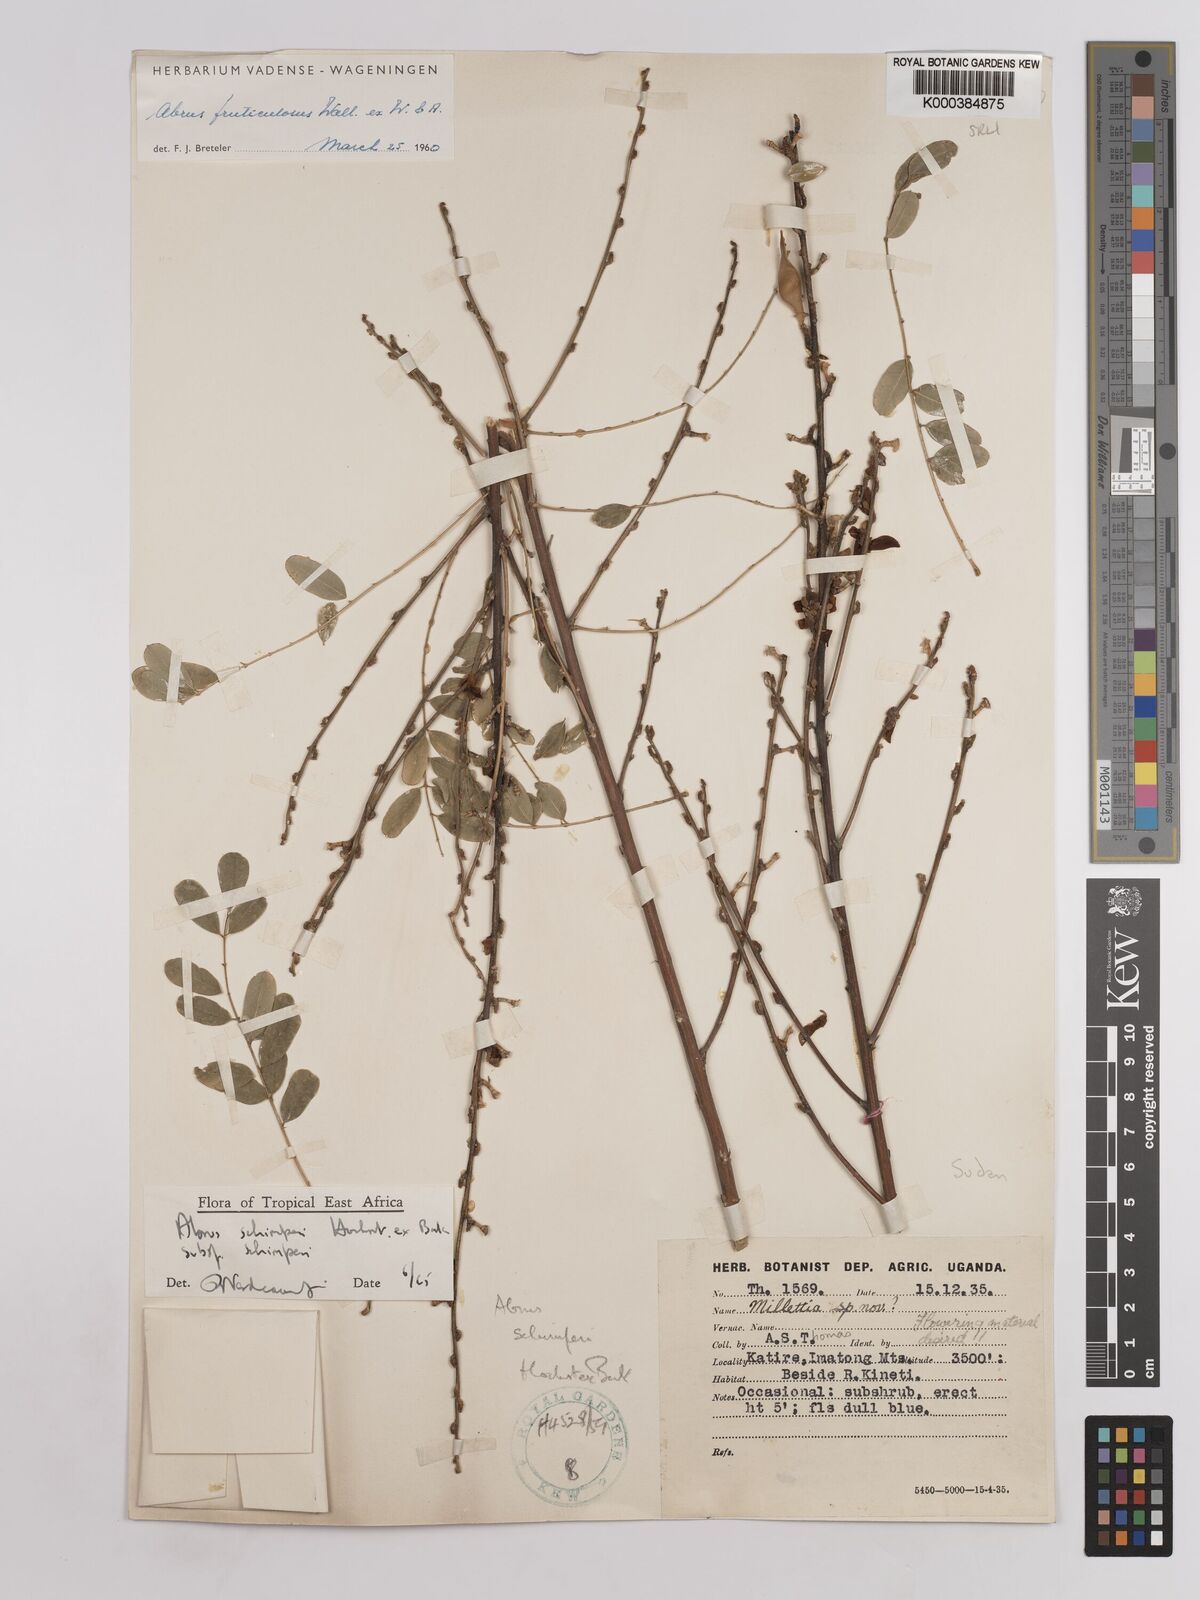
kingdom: Plantae
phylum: Tracheophyta
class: Magnoliopsida
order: Fabales
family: Fabaceae
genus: Abrus
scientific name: Abrus fruticulosus
